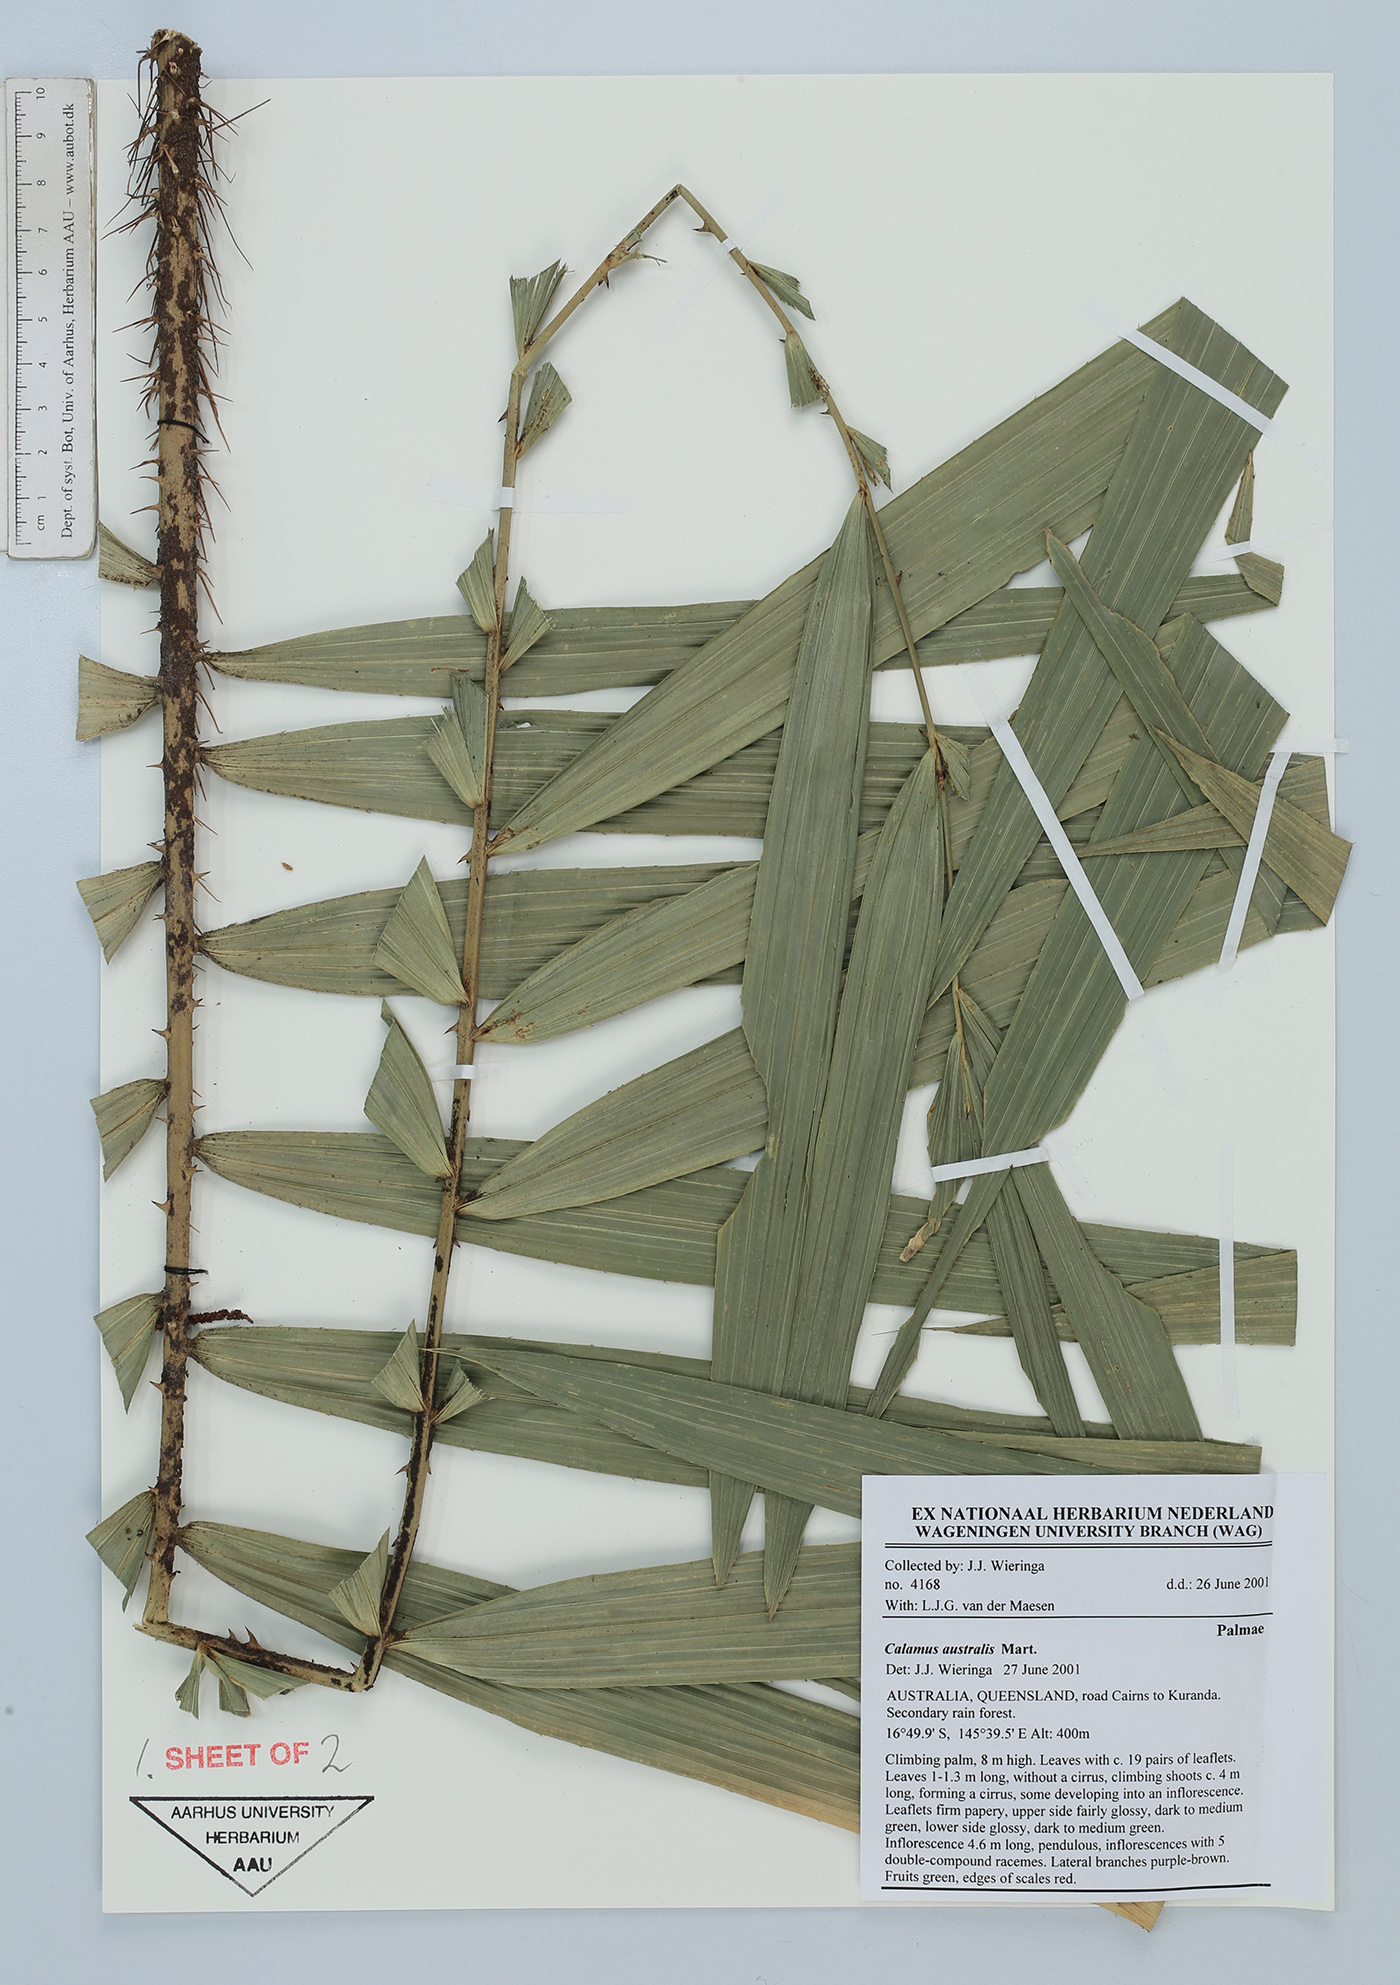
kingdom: Plantae
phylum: Tracheophyta
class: Liliopsida
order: Arecales
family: Arecaceae
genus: Calamus
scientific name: Calamus australis
